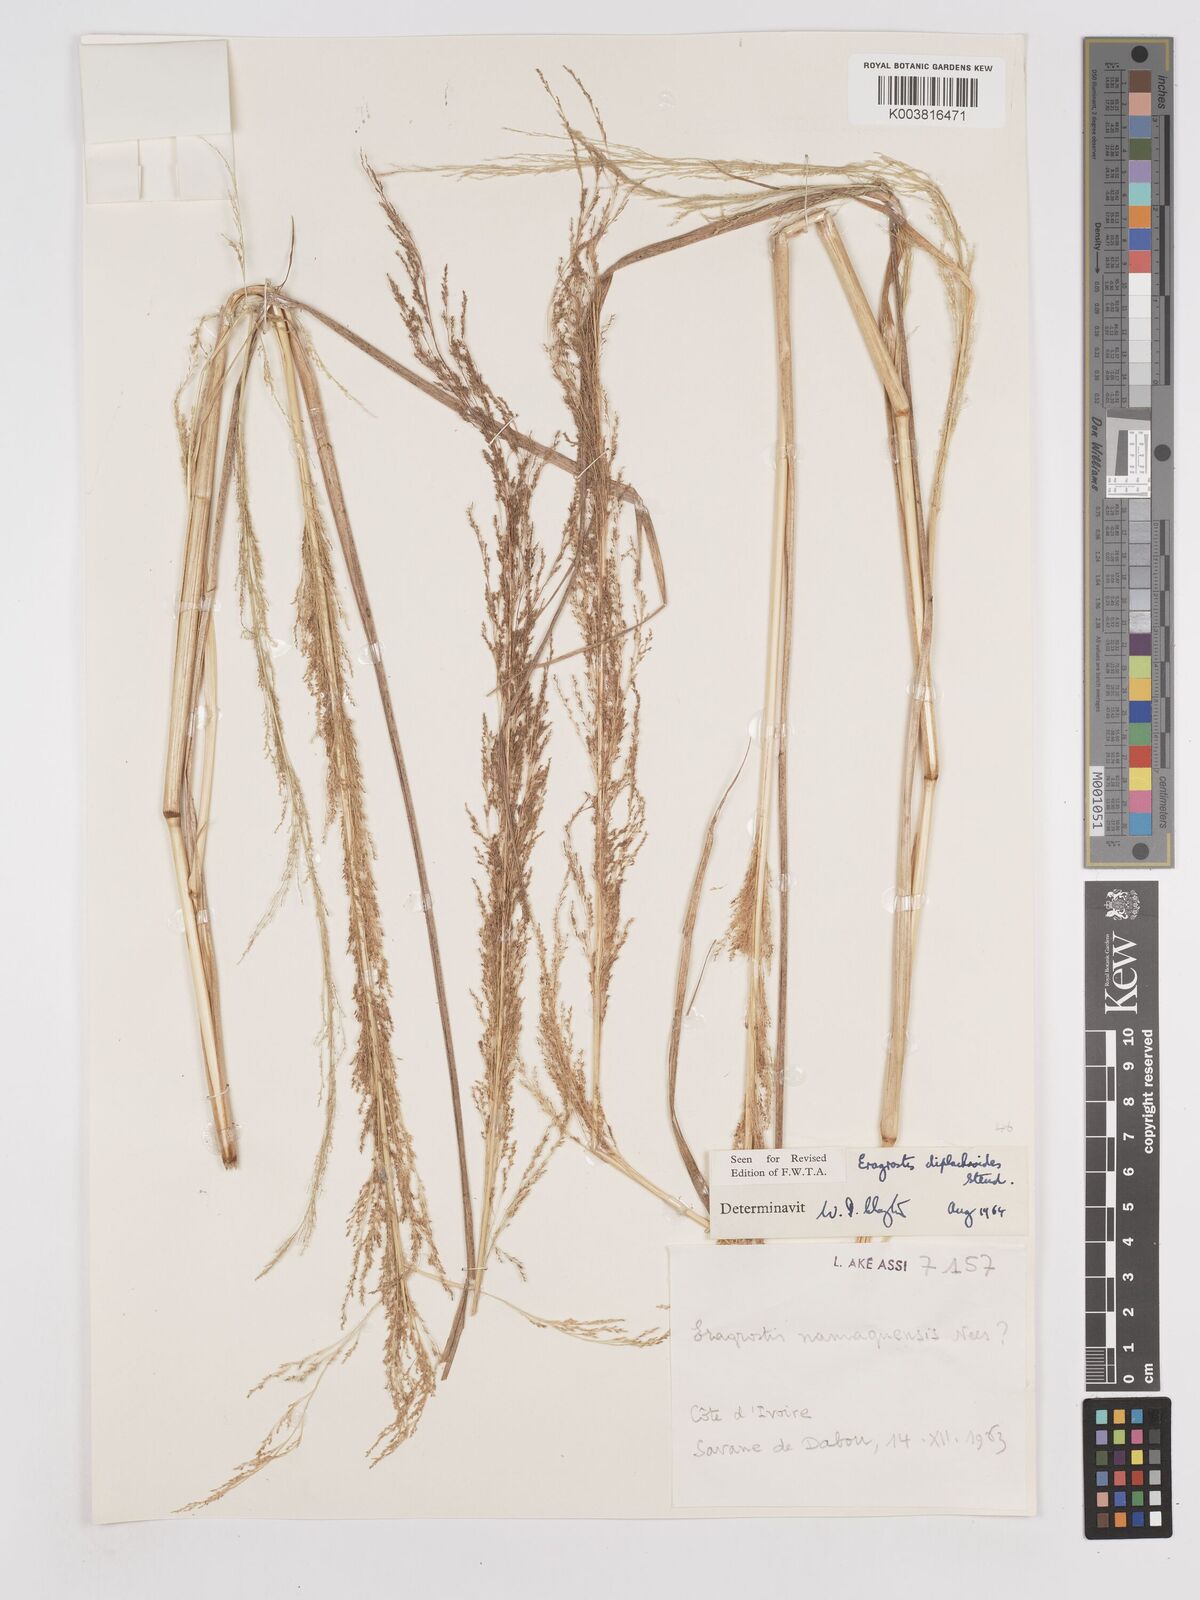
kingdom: Plantae
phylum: Tracheophyta
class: Liliopsida
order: Poales
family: Poaceae
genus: Eragrostis
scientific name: Eragrostis japonica
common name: Pond lovegrass
